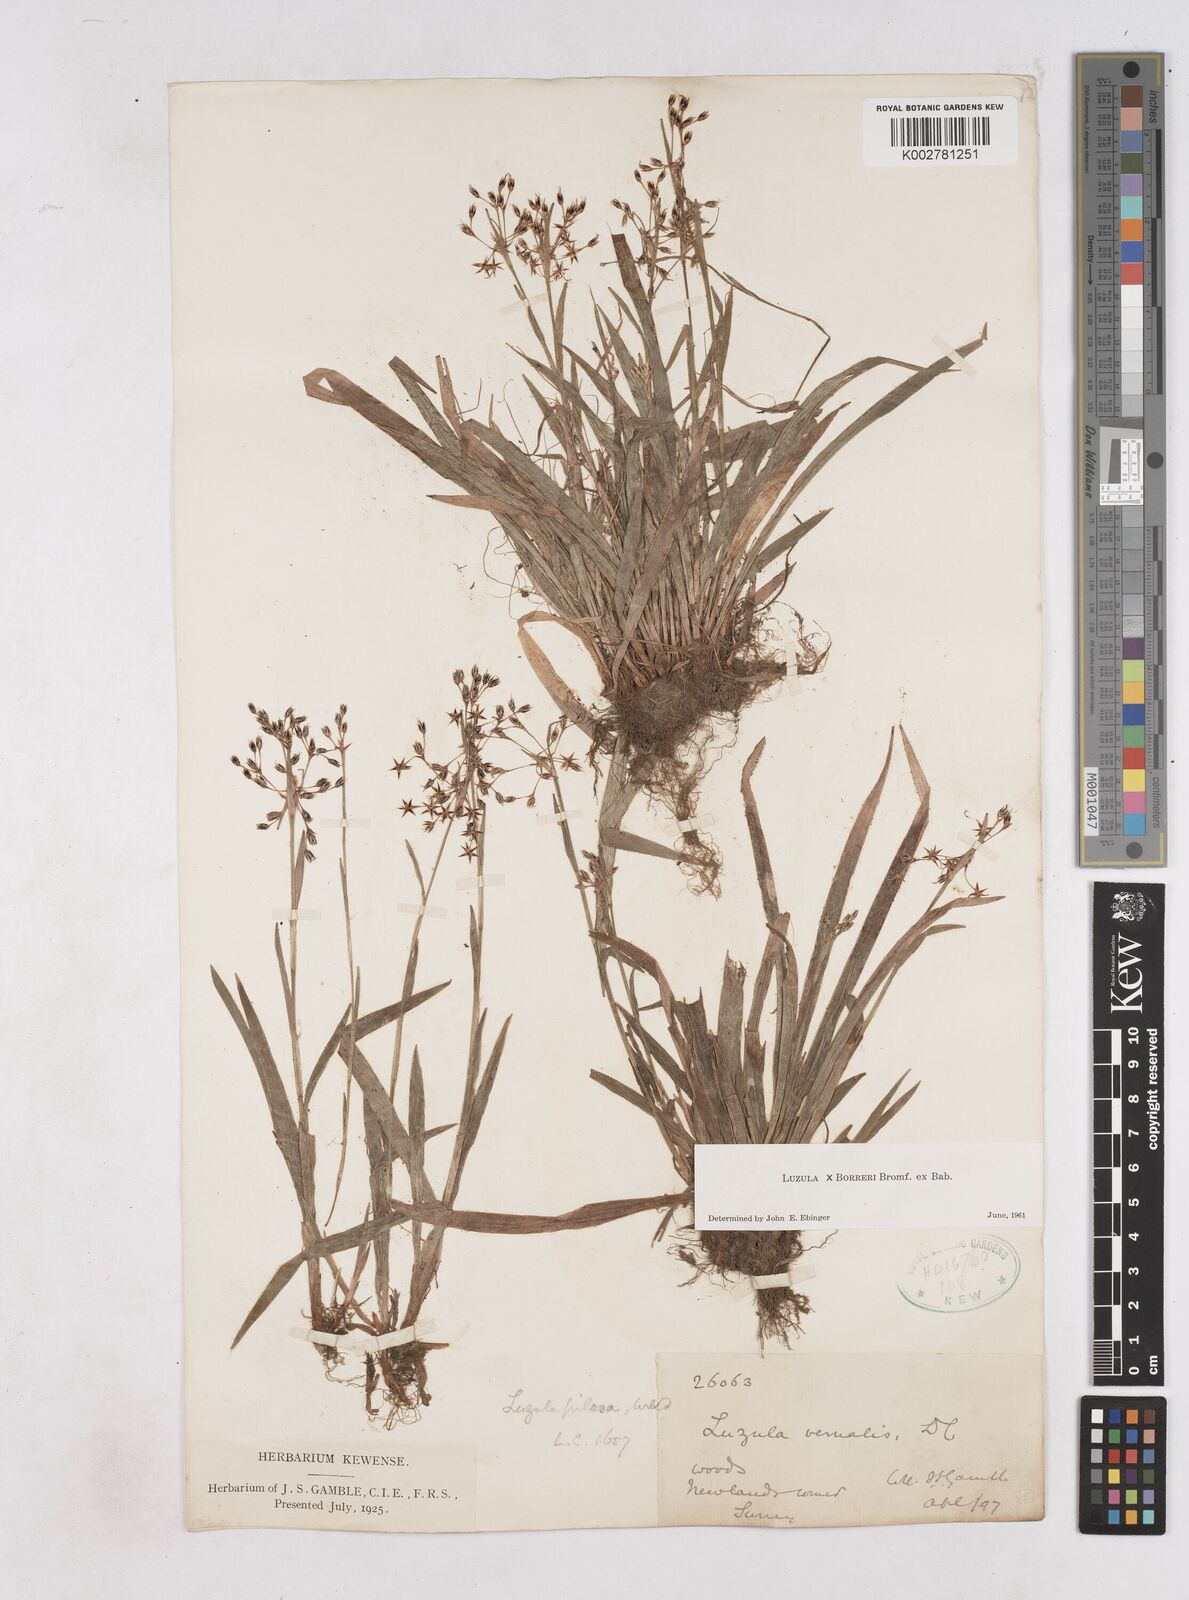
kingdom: Plantae
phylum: Tracheophyta
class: Liliopsida
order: Poales
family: Juncaceae
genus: Luzula
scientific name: Luzula forsteri
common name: Southern wood-rush
